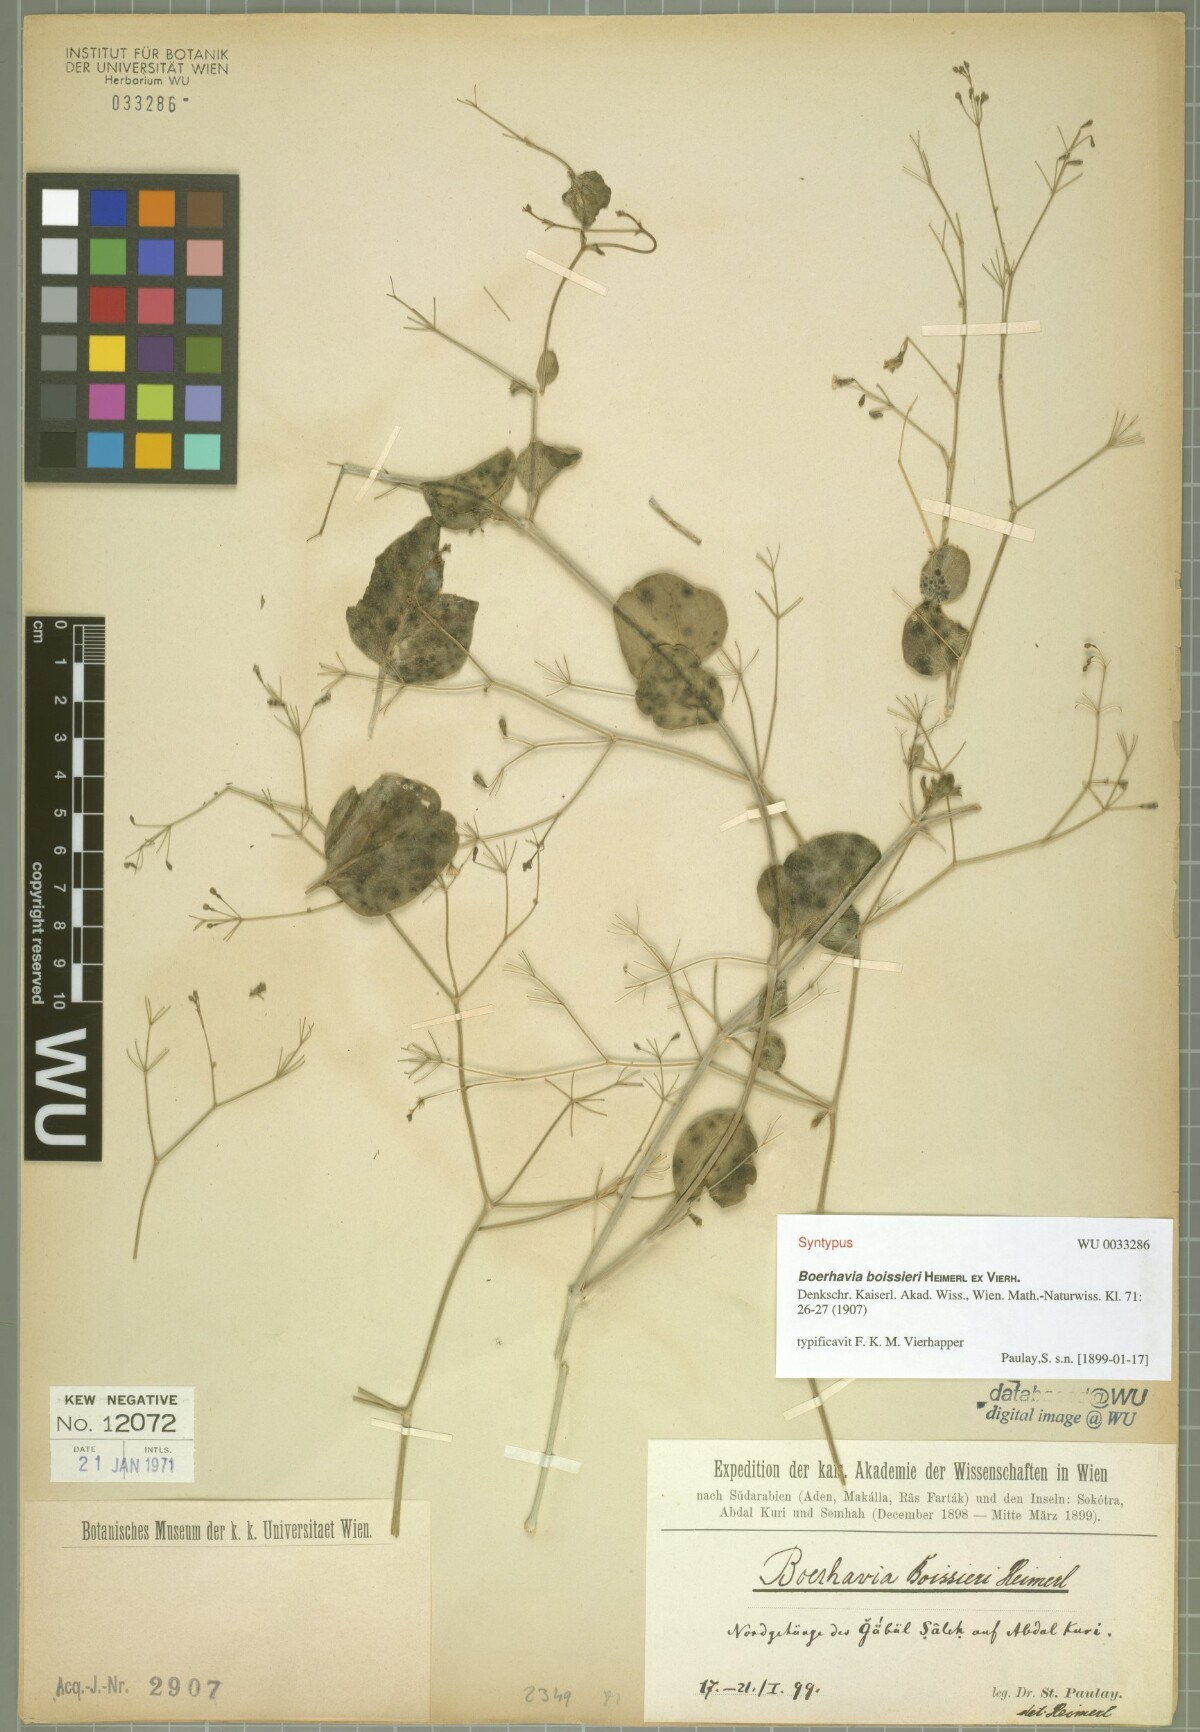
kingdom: Plantae
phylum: Tracheophyta
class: Magnoliopsida
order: Caryophyllales
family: Nyctaginaceae
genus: Commicarpus
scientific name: Commicarpus boissieri
